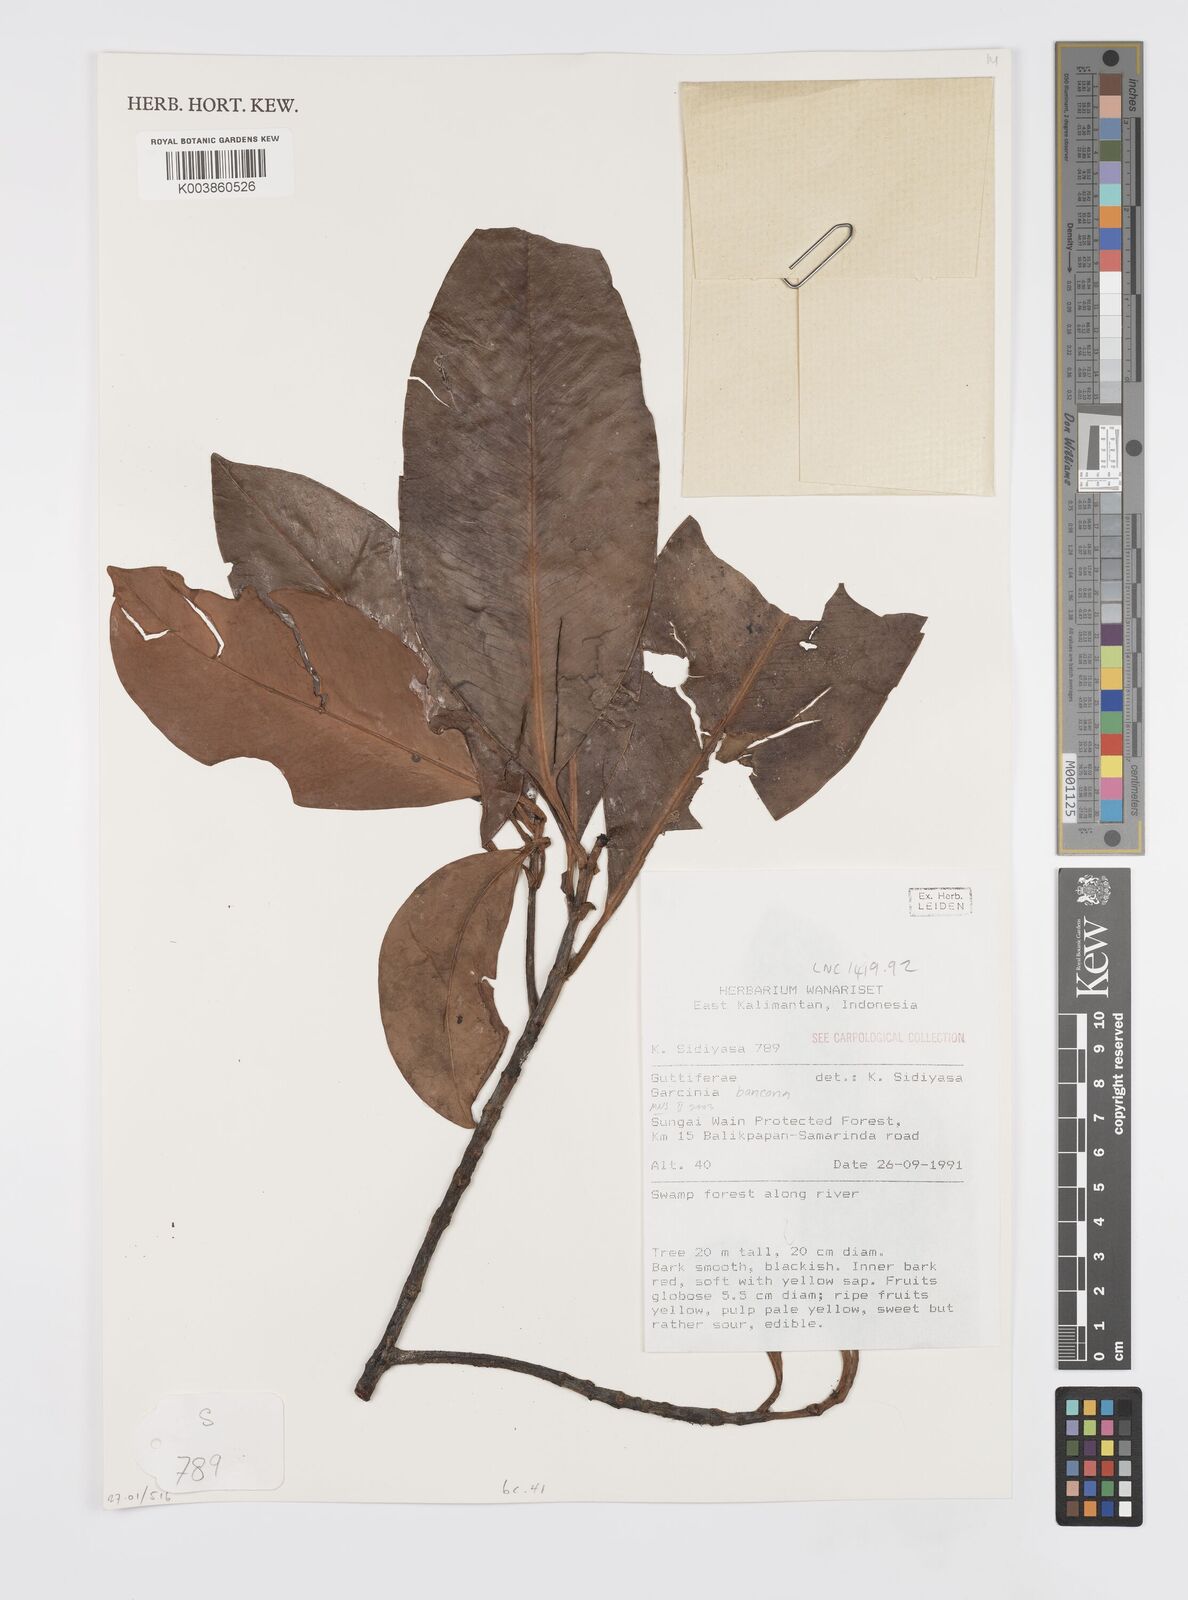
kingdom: Plantae
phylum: Tracheophyta
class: Magnoliopsida
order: Malpighiales
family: Clusiaceae
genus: Garcinia
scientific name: Garcinia bancana
